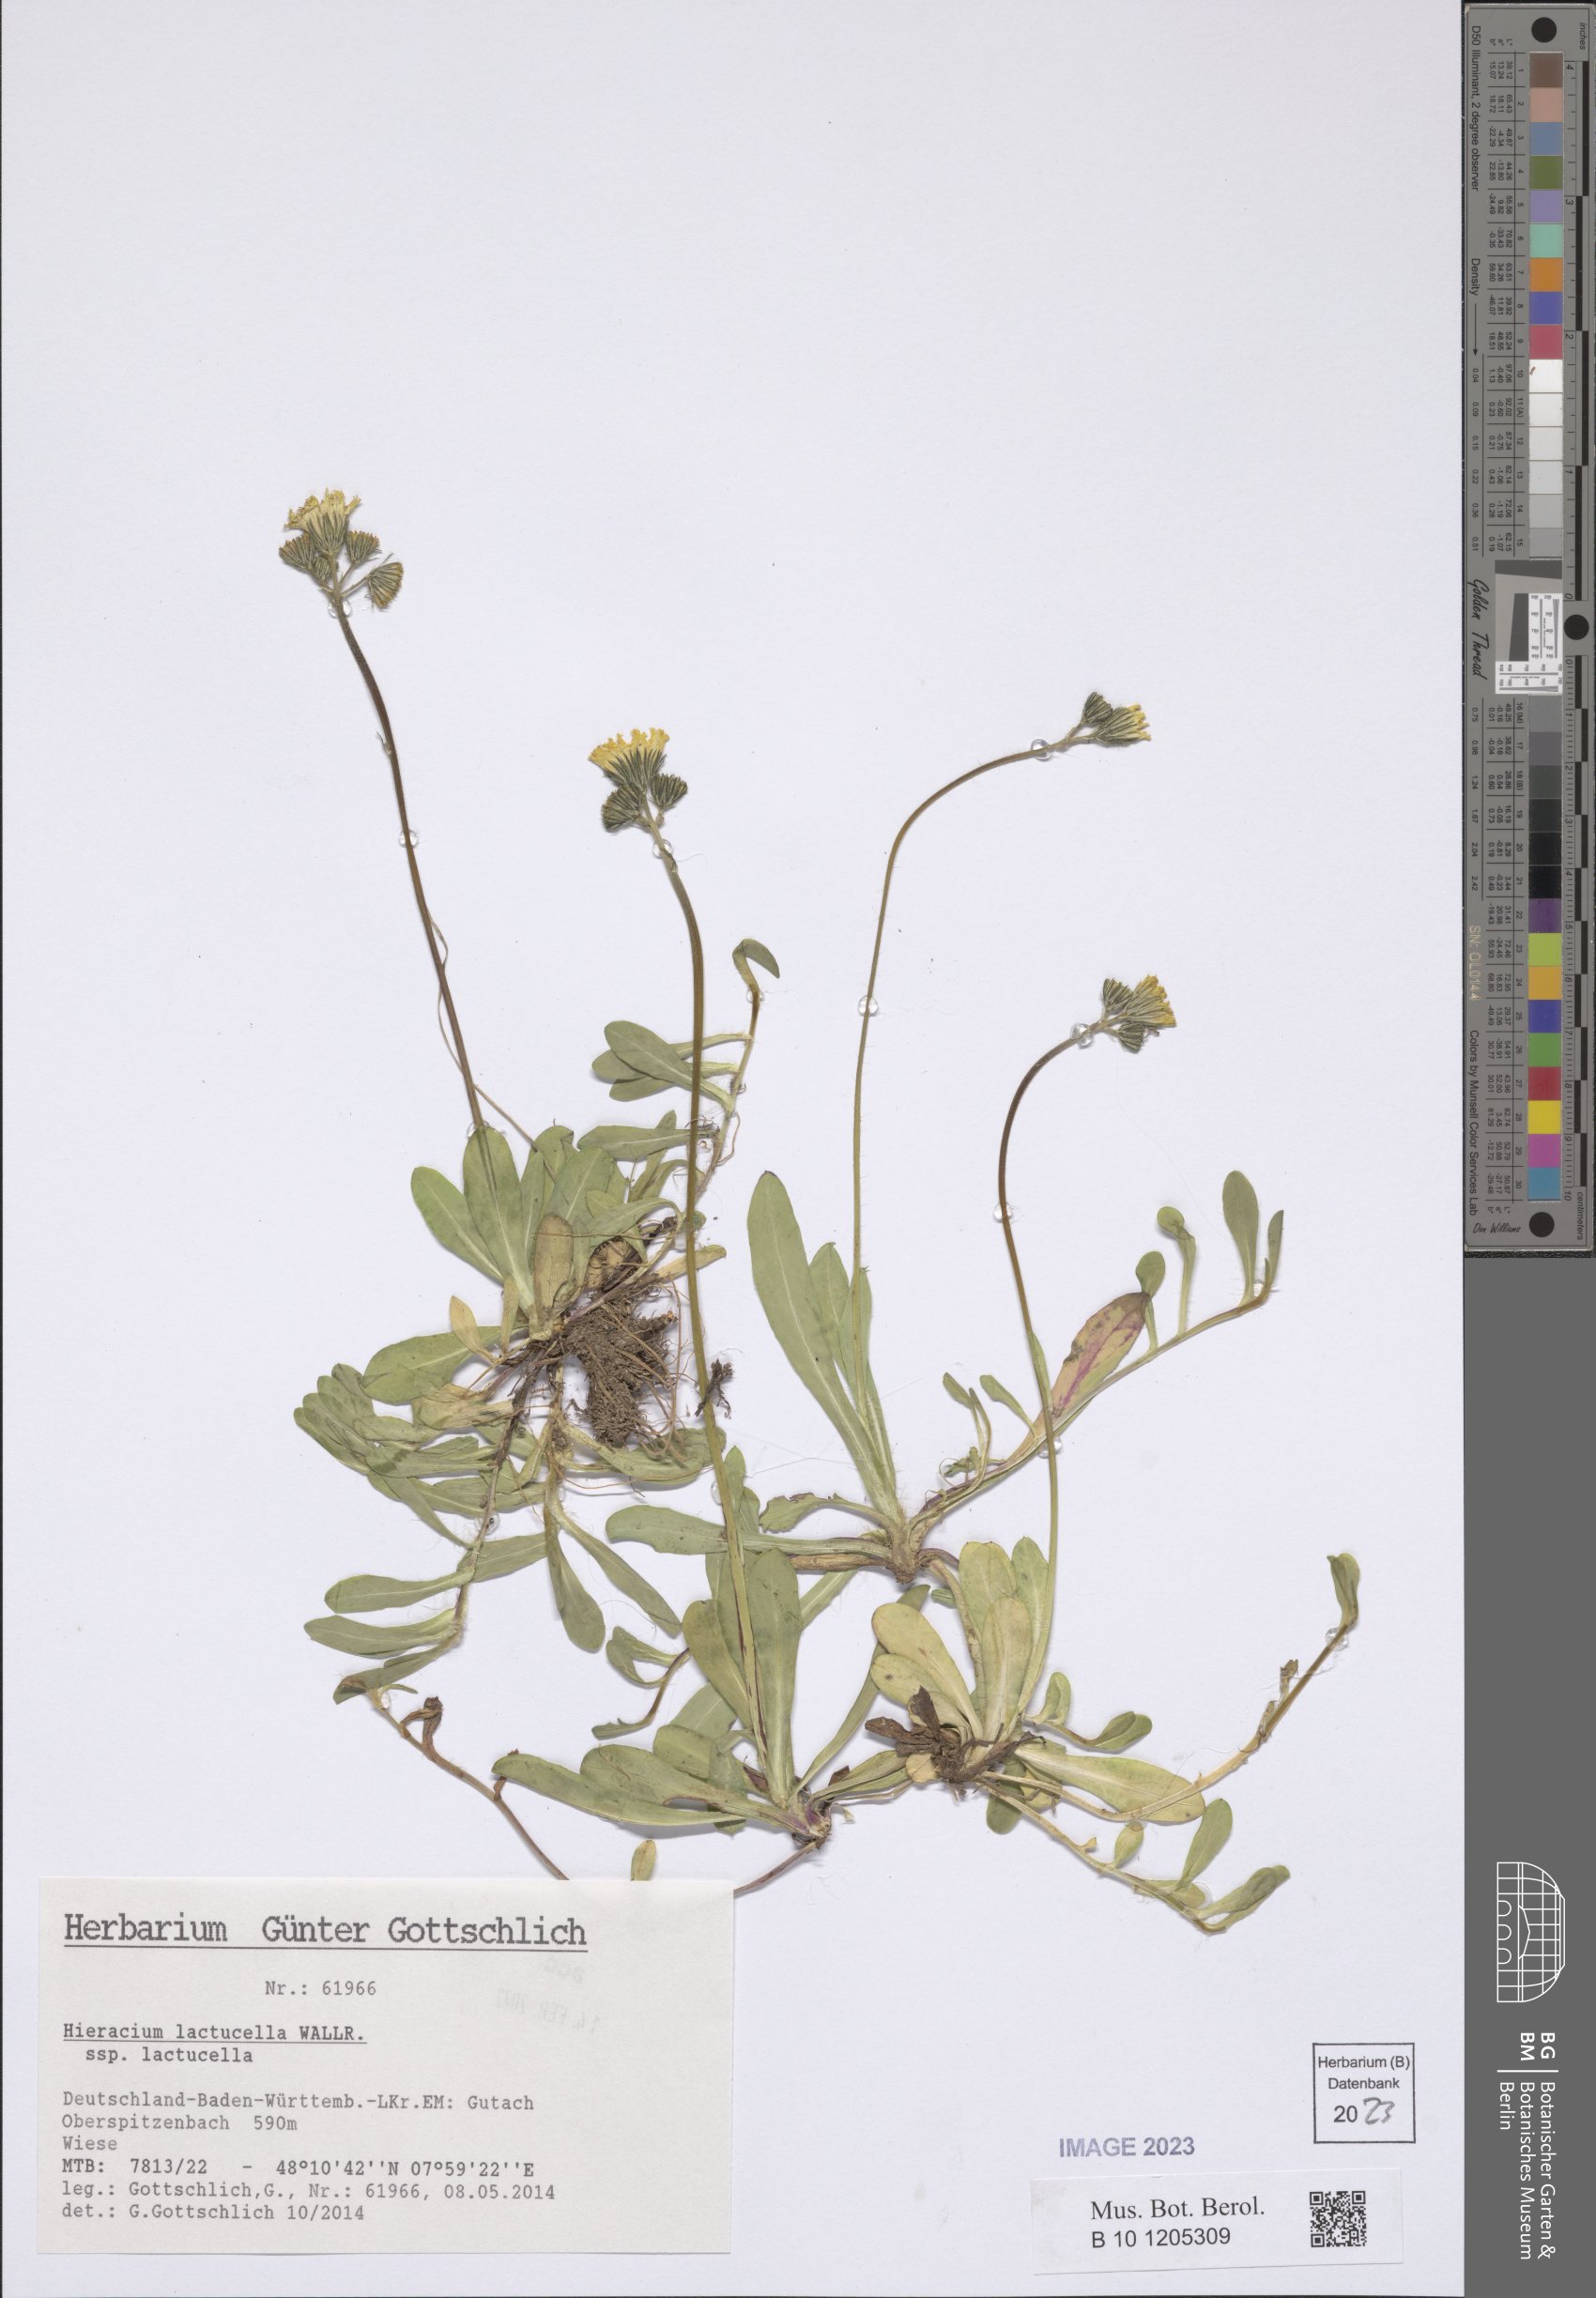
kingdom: Plantae
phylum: Tracheophyta
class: Magnoliopsida
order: Asterales
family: Asteraceae
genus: Pilosella
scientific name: Pilosella lactucella
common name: Glaucous fox-and-cubs
